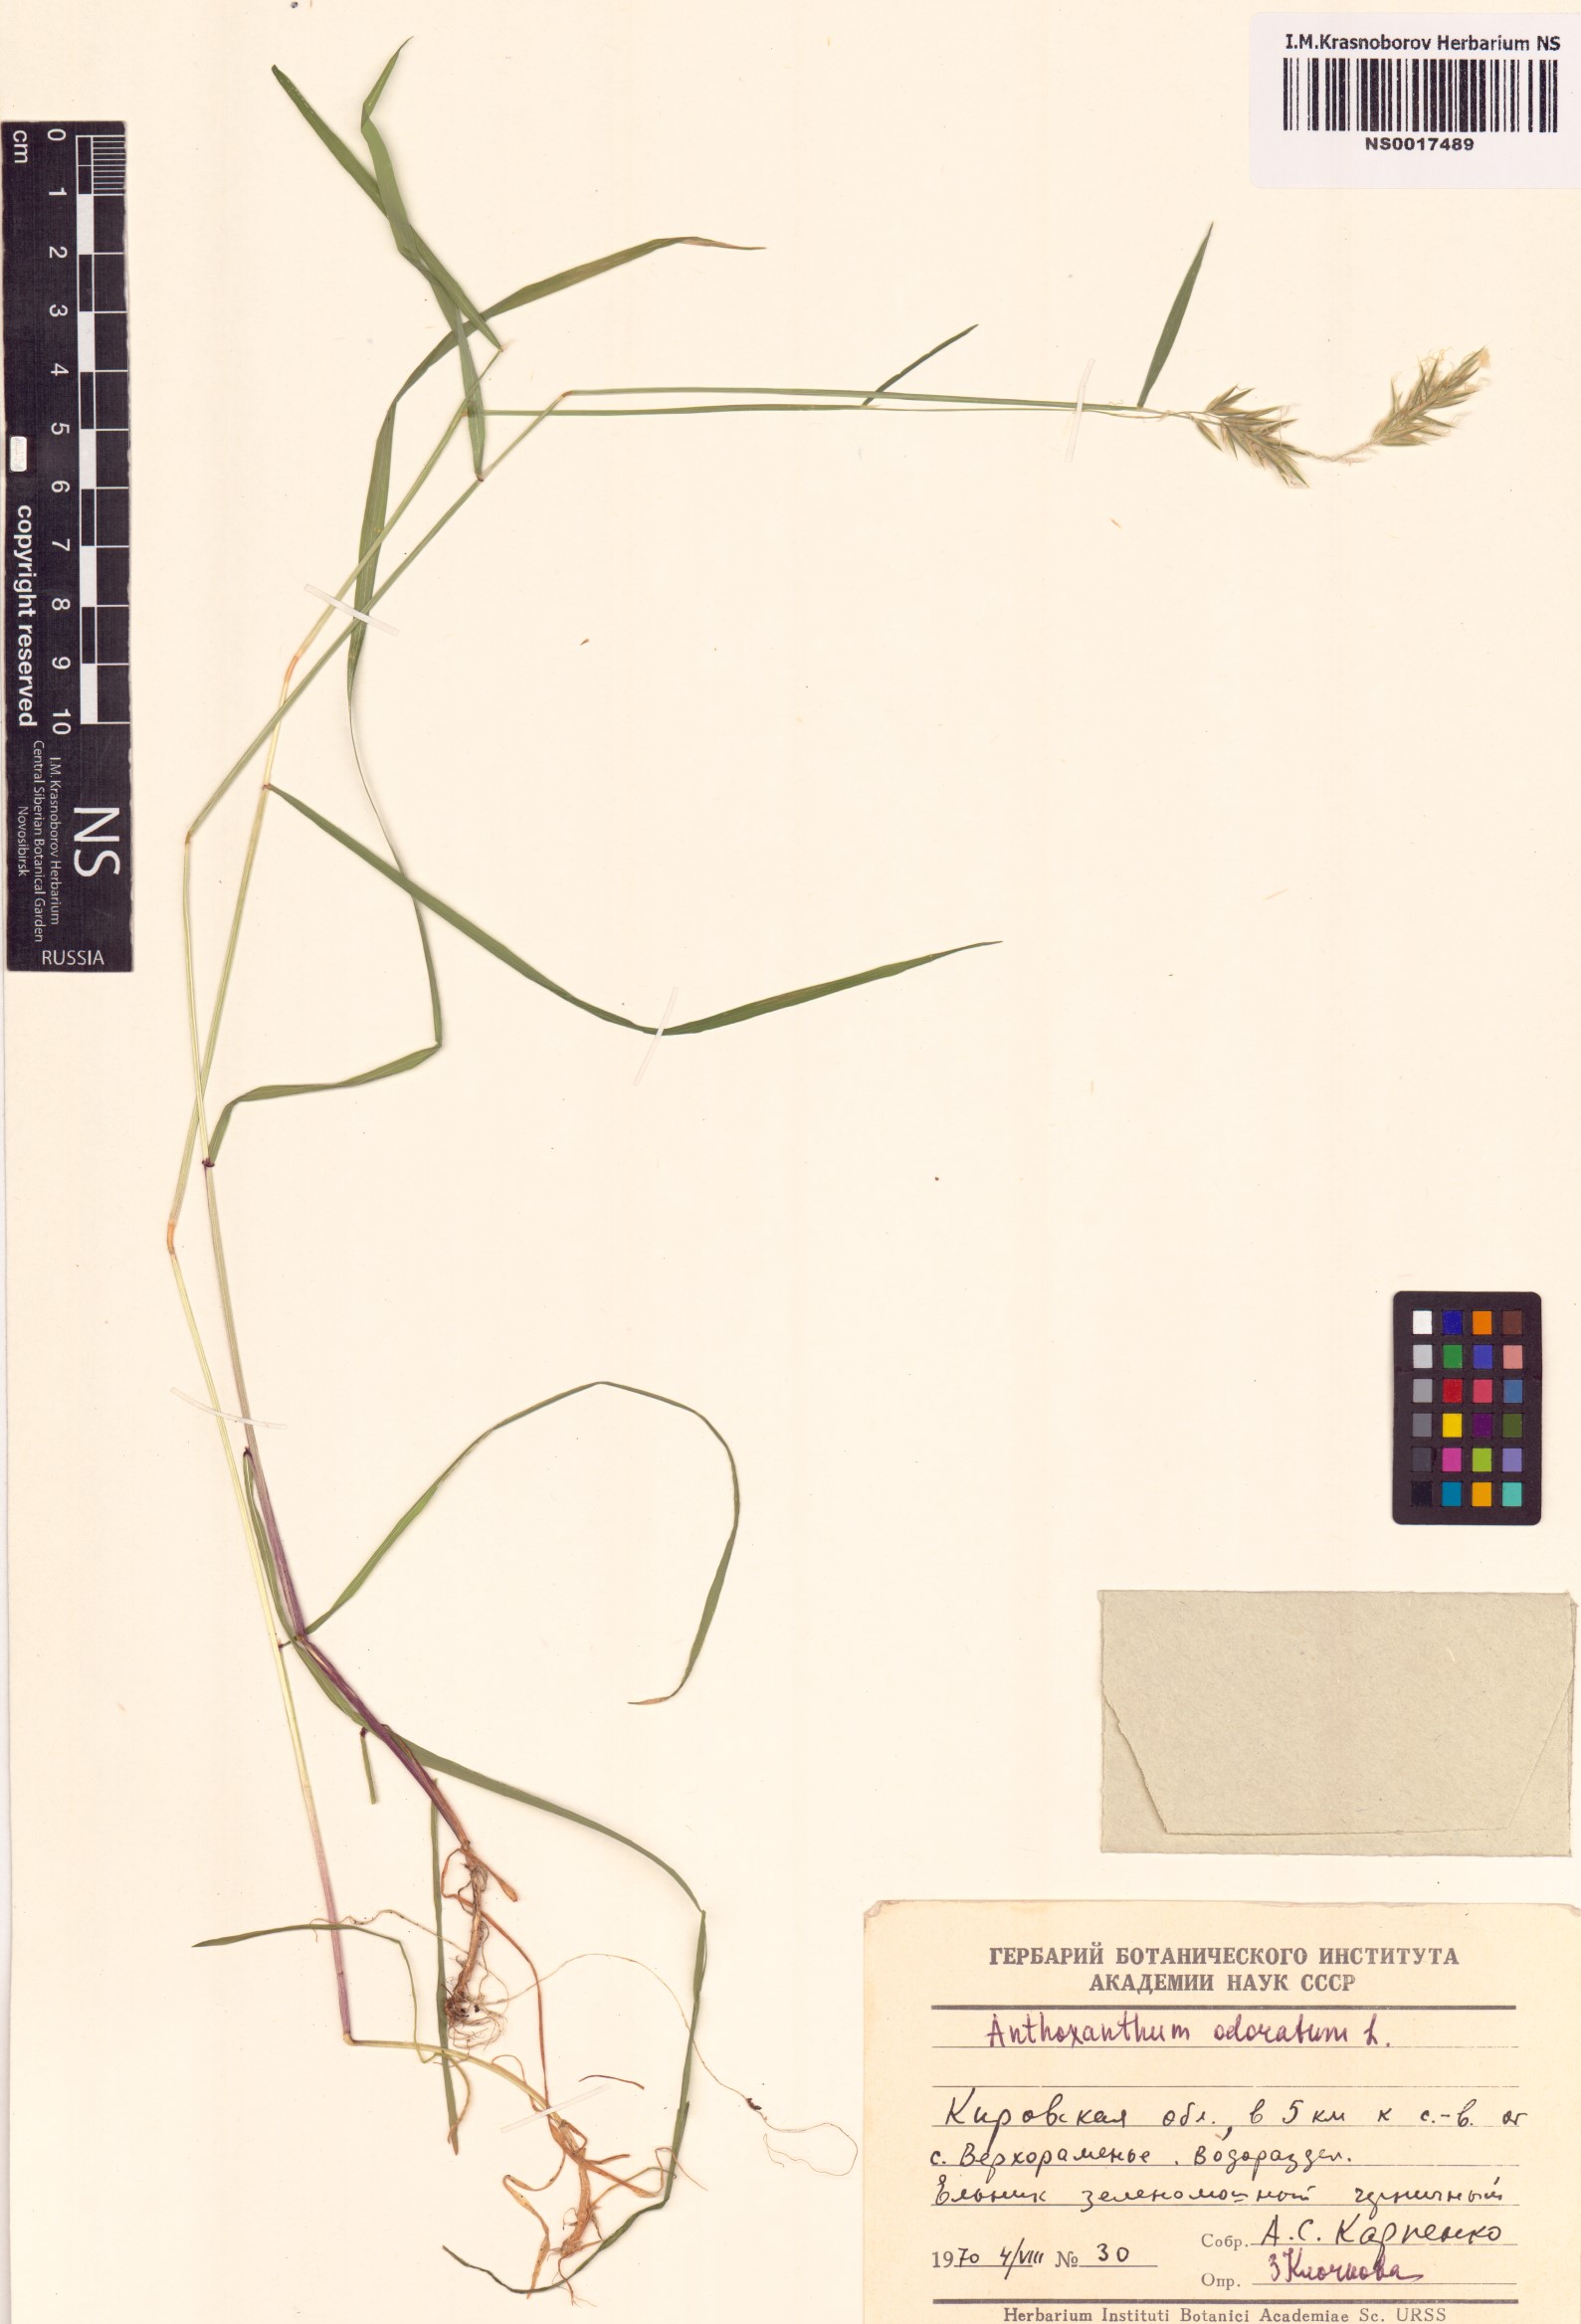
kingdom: Plantae
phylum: Tracheophyta
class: Liliopsida
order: Poales
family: Poaceae
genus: Anthoxanthum
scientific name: Anthoxanthum odoratum
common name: Sweet vernalgrass
